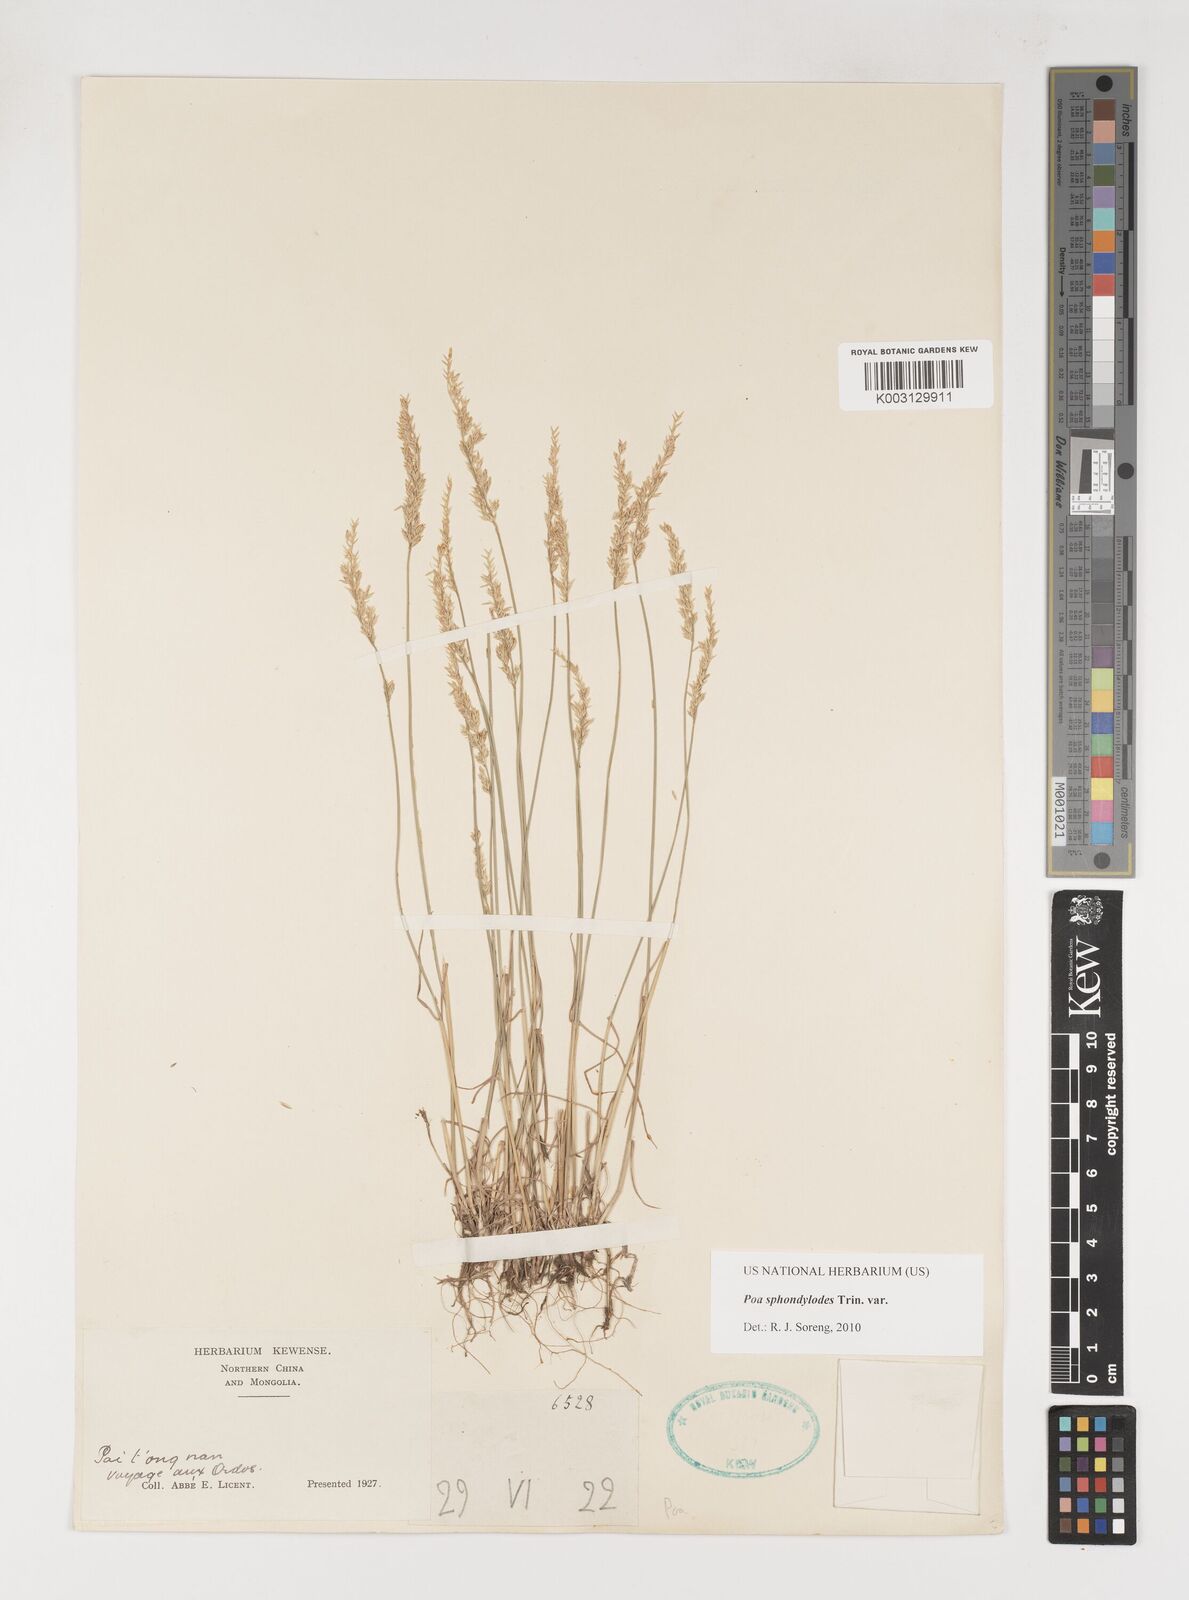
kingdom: Plantae
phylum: Tracheophyta
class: Liliopsida
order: Poales
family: Poaceae
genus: Poa
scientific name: Poa sphondylodes
